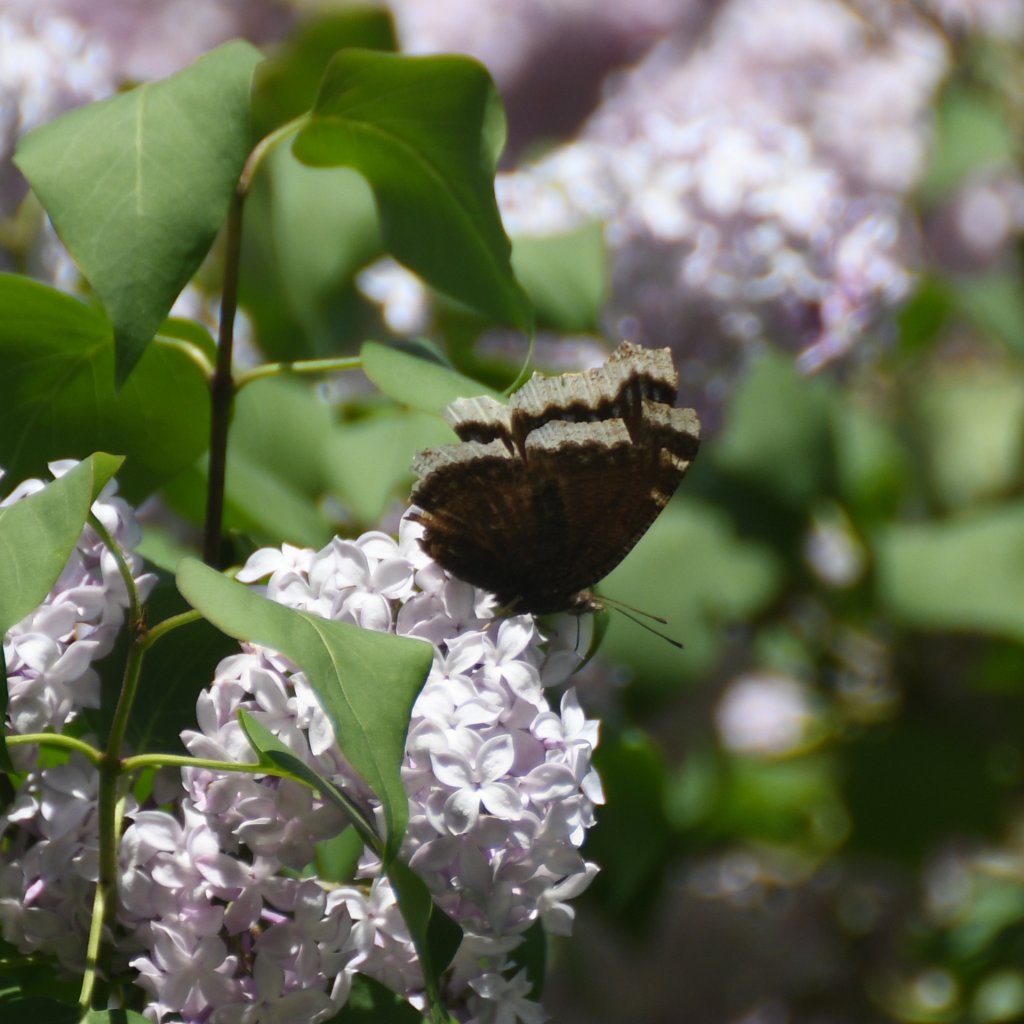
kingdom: Animalia
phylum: Arthropoda
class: Insecta
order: Lepidoptera
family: Nymphalidae
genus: Nymphalis
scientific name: Nymphalis antiopa
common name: Mourning Cloak
